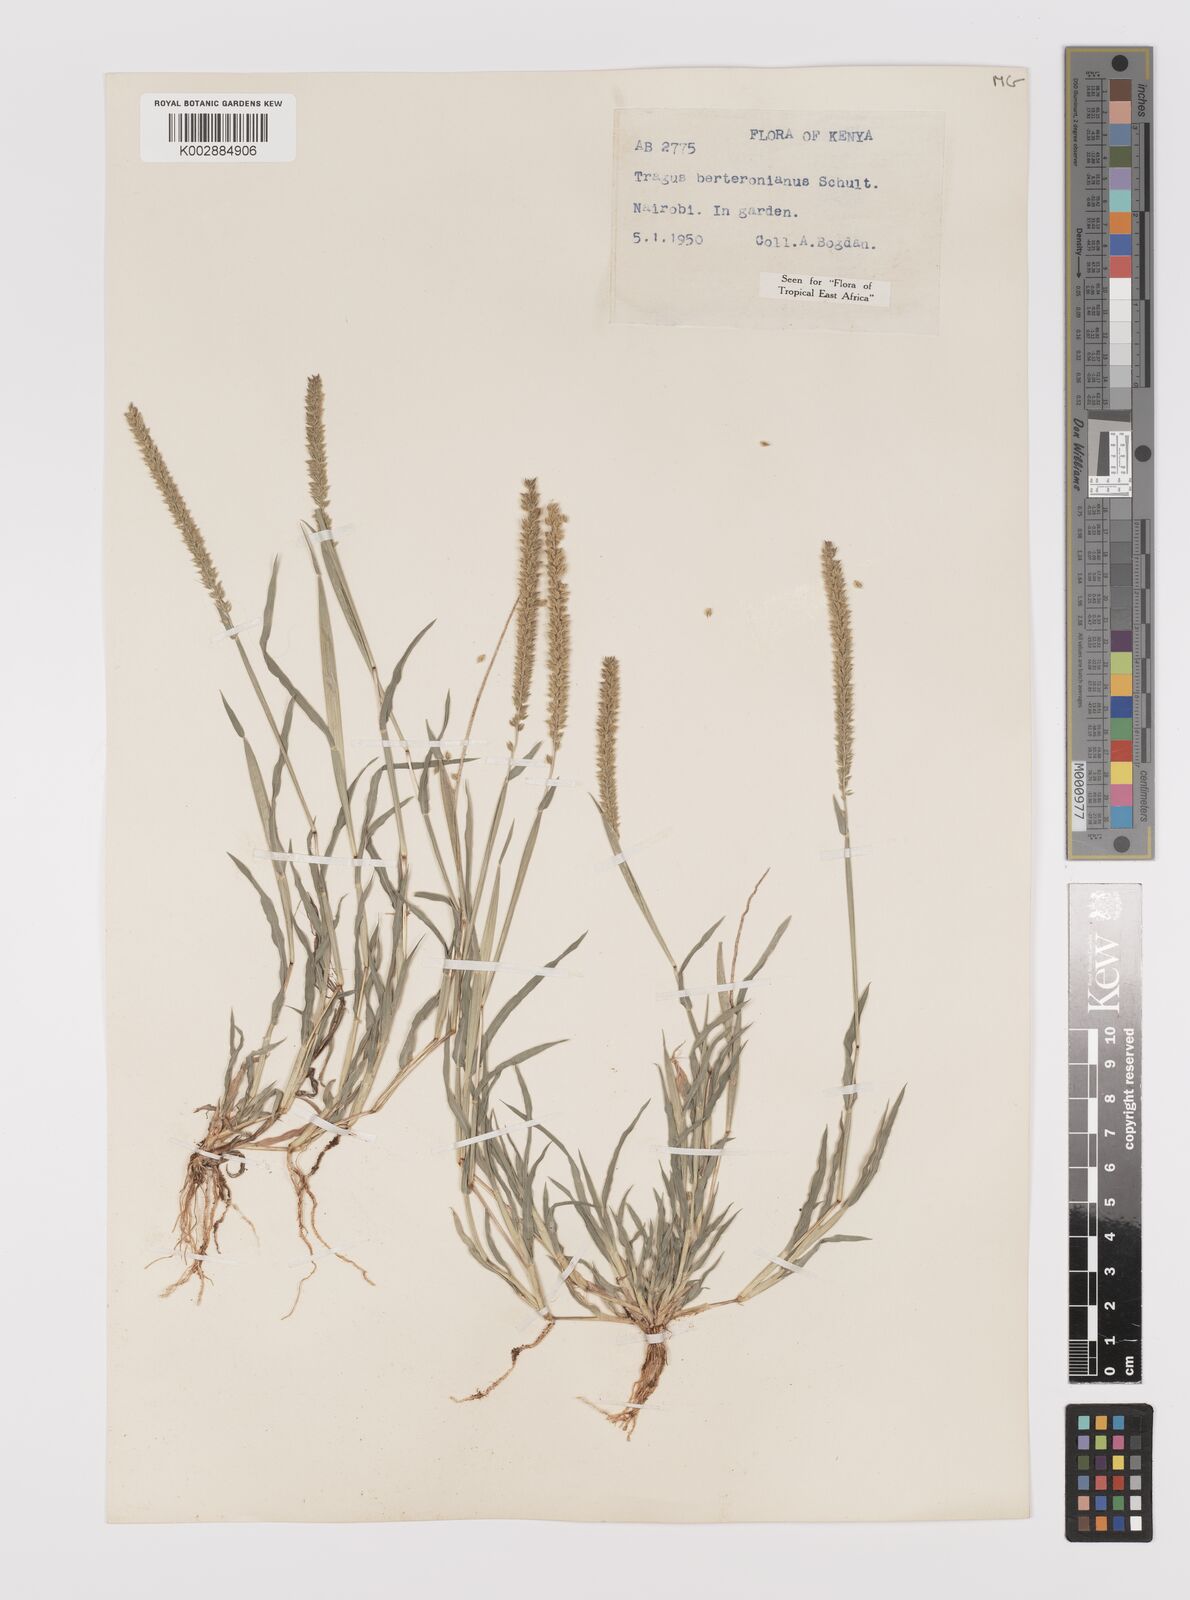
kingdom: Plantae
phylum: Tracheophyta
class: Liliopsida
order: Poales
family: Poaceae
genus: Tragus
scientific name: Tragus berteronianus
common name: African bur-grass
